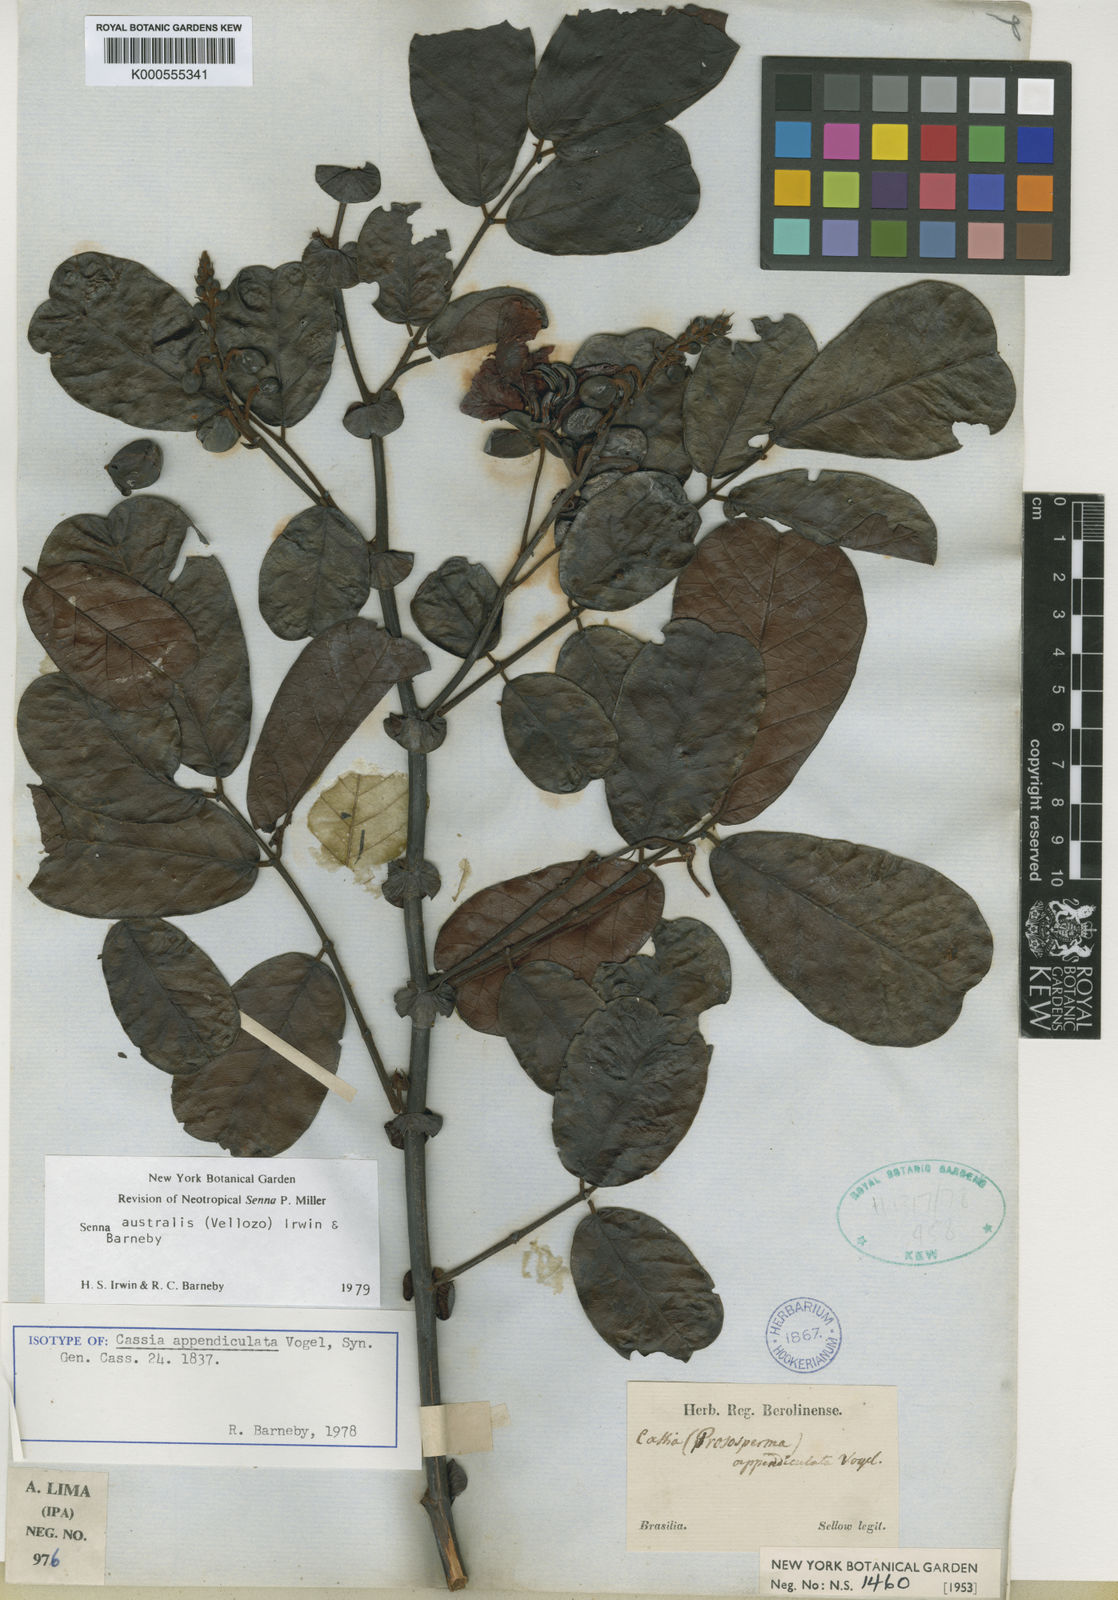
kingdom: Plantae
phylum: Tracheophyta
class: Magnoliopsida
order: Fabales
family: Fabaceae
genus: Senna
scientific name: Senna appendiculata
